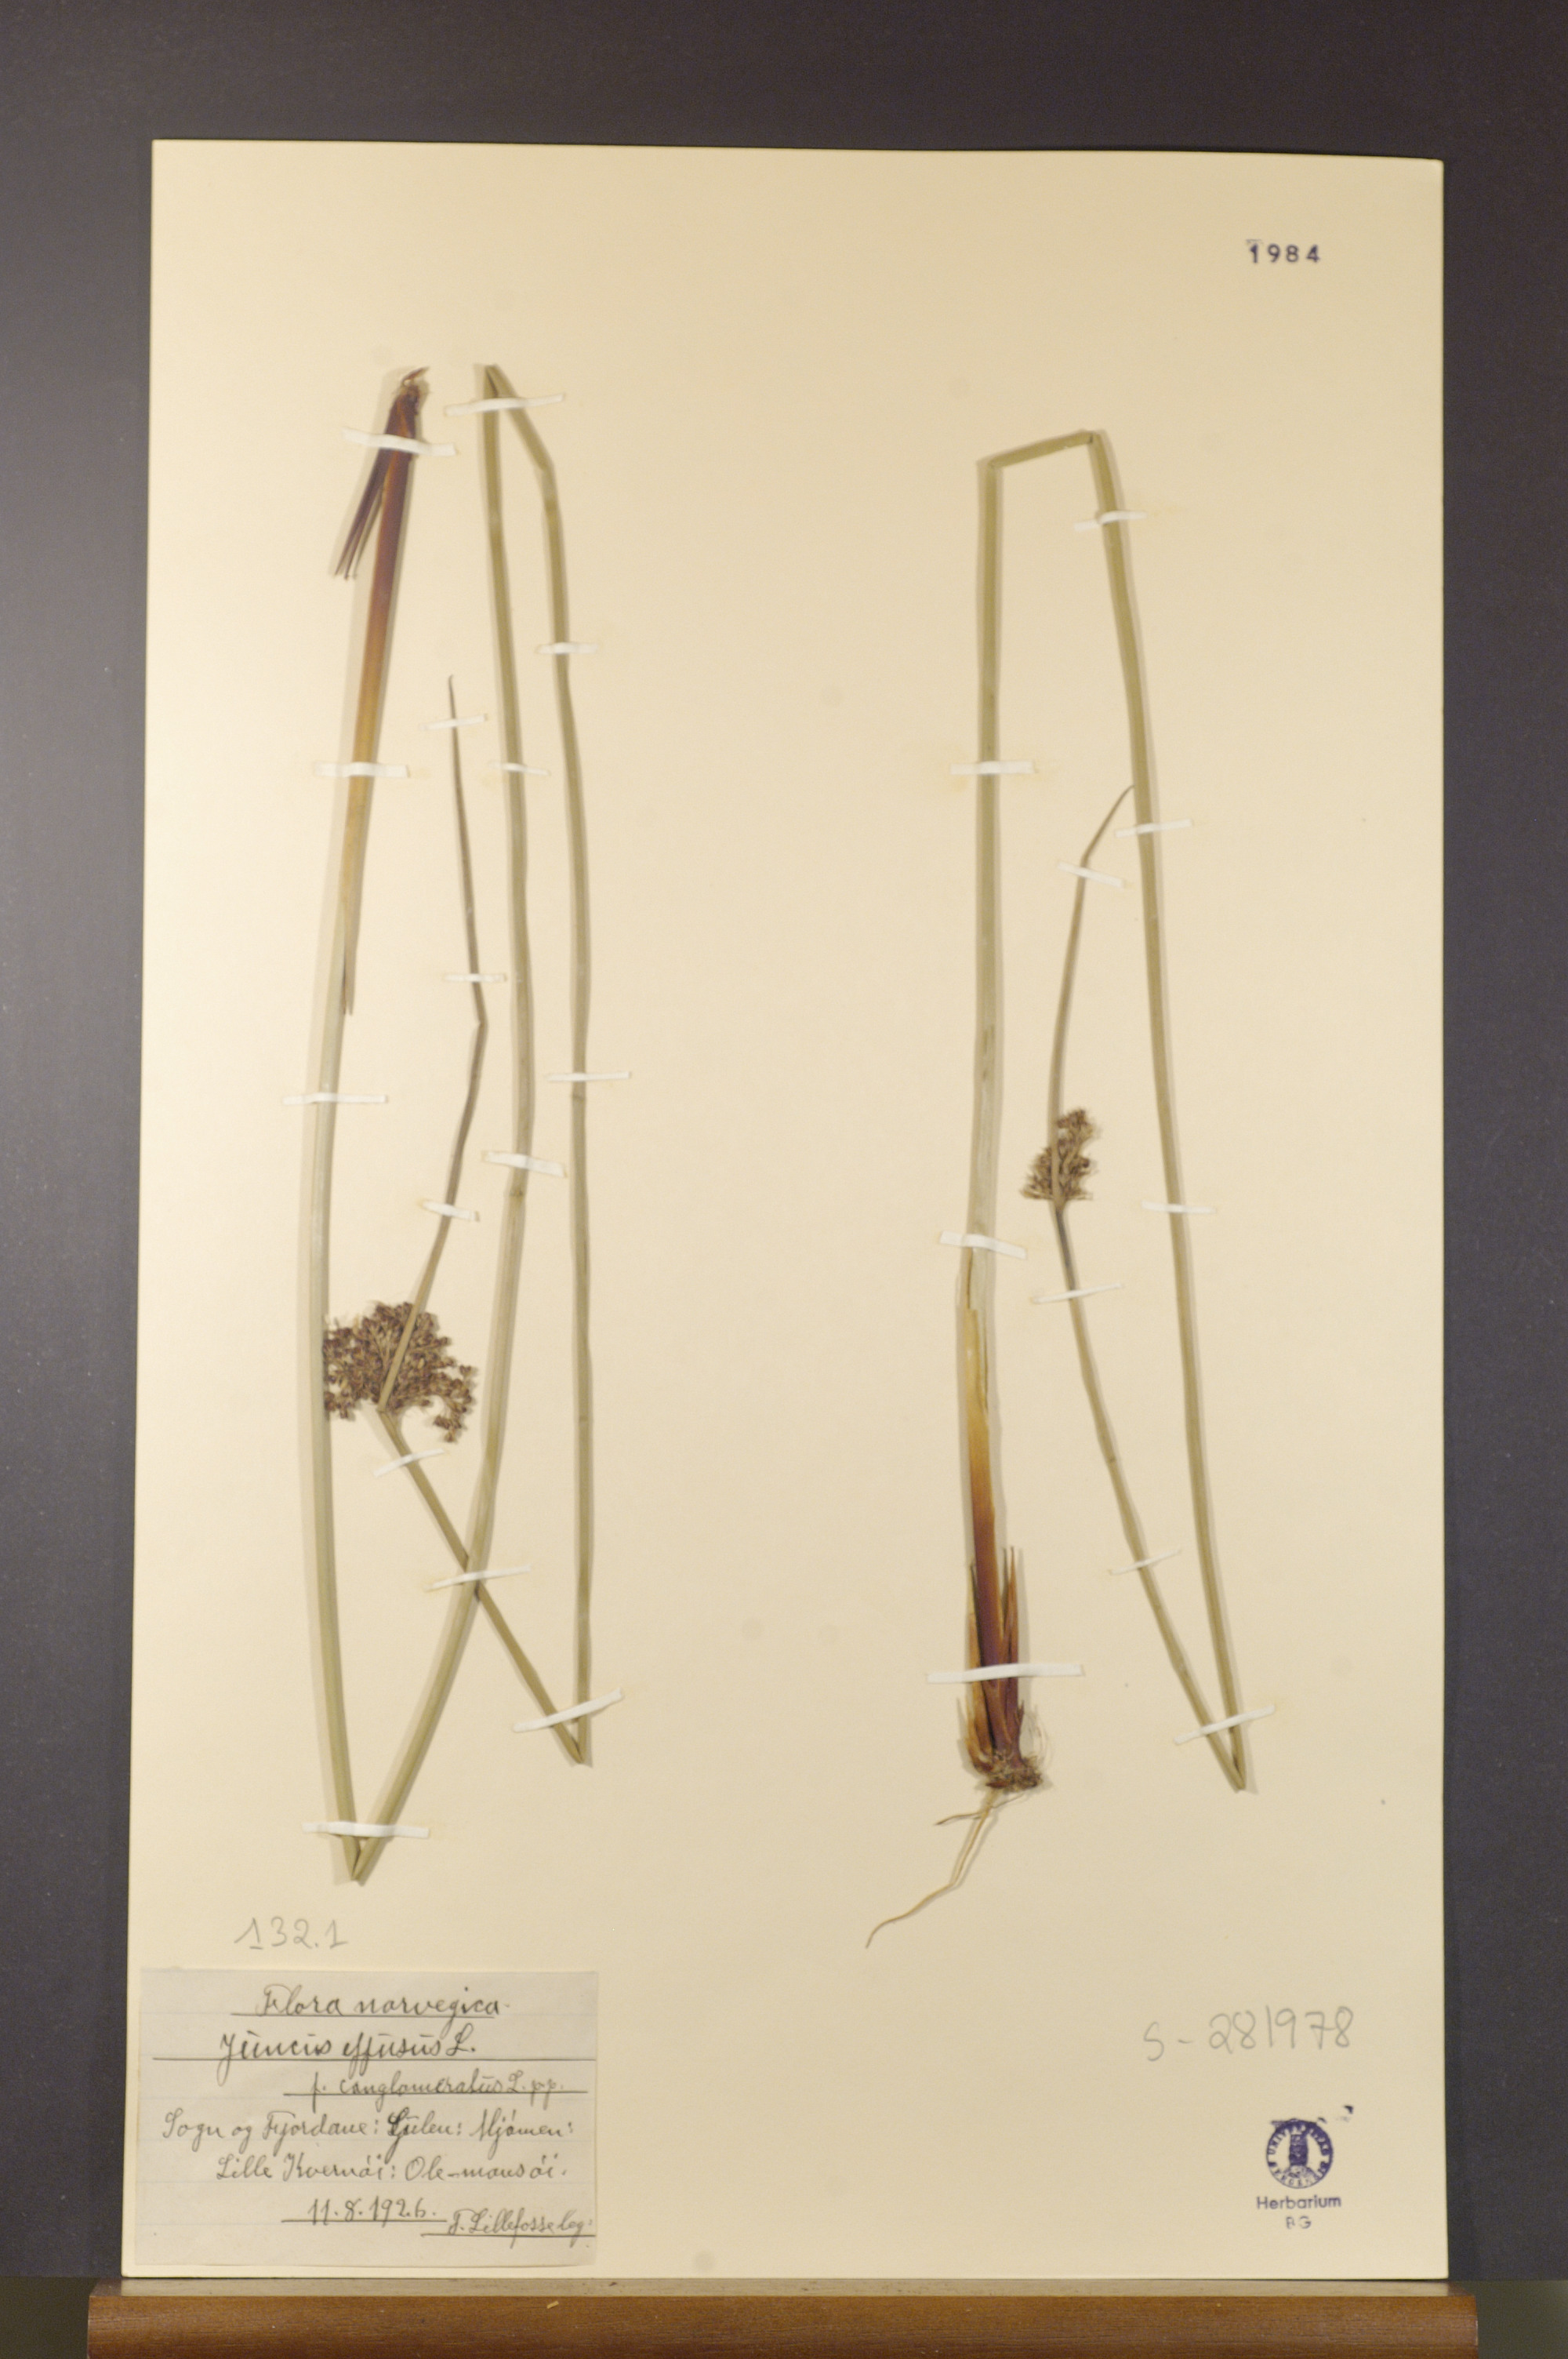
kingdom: Plantae
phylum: Tracheophyta
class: Liliopsida
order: Poales
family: Juncaceae
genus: Juncus
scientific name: Juncus effusus
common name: Soft rush
